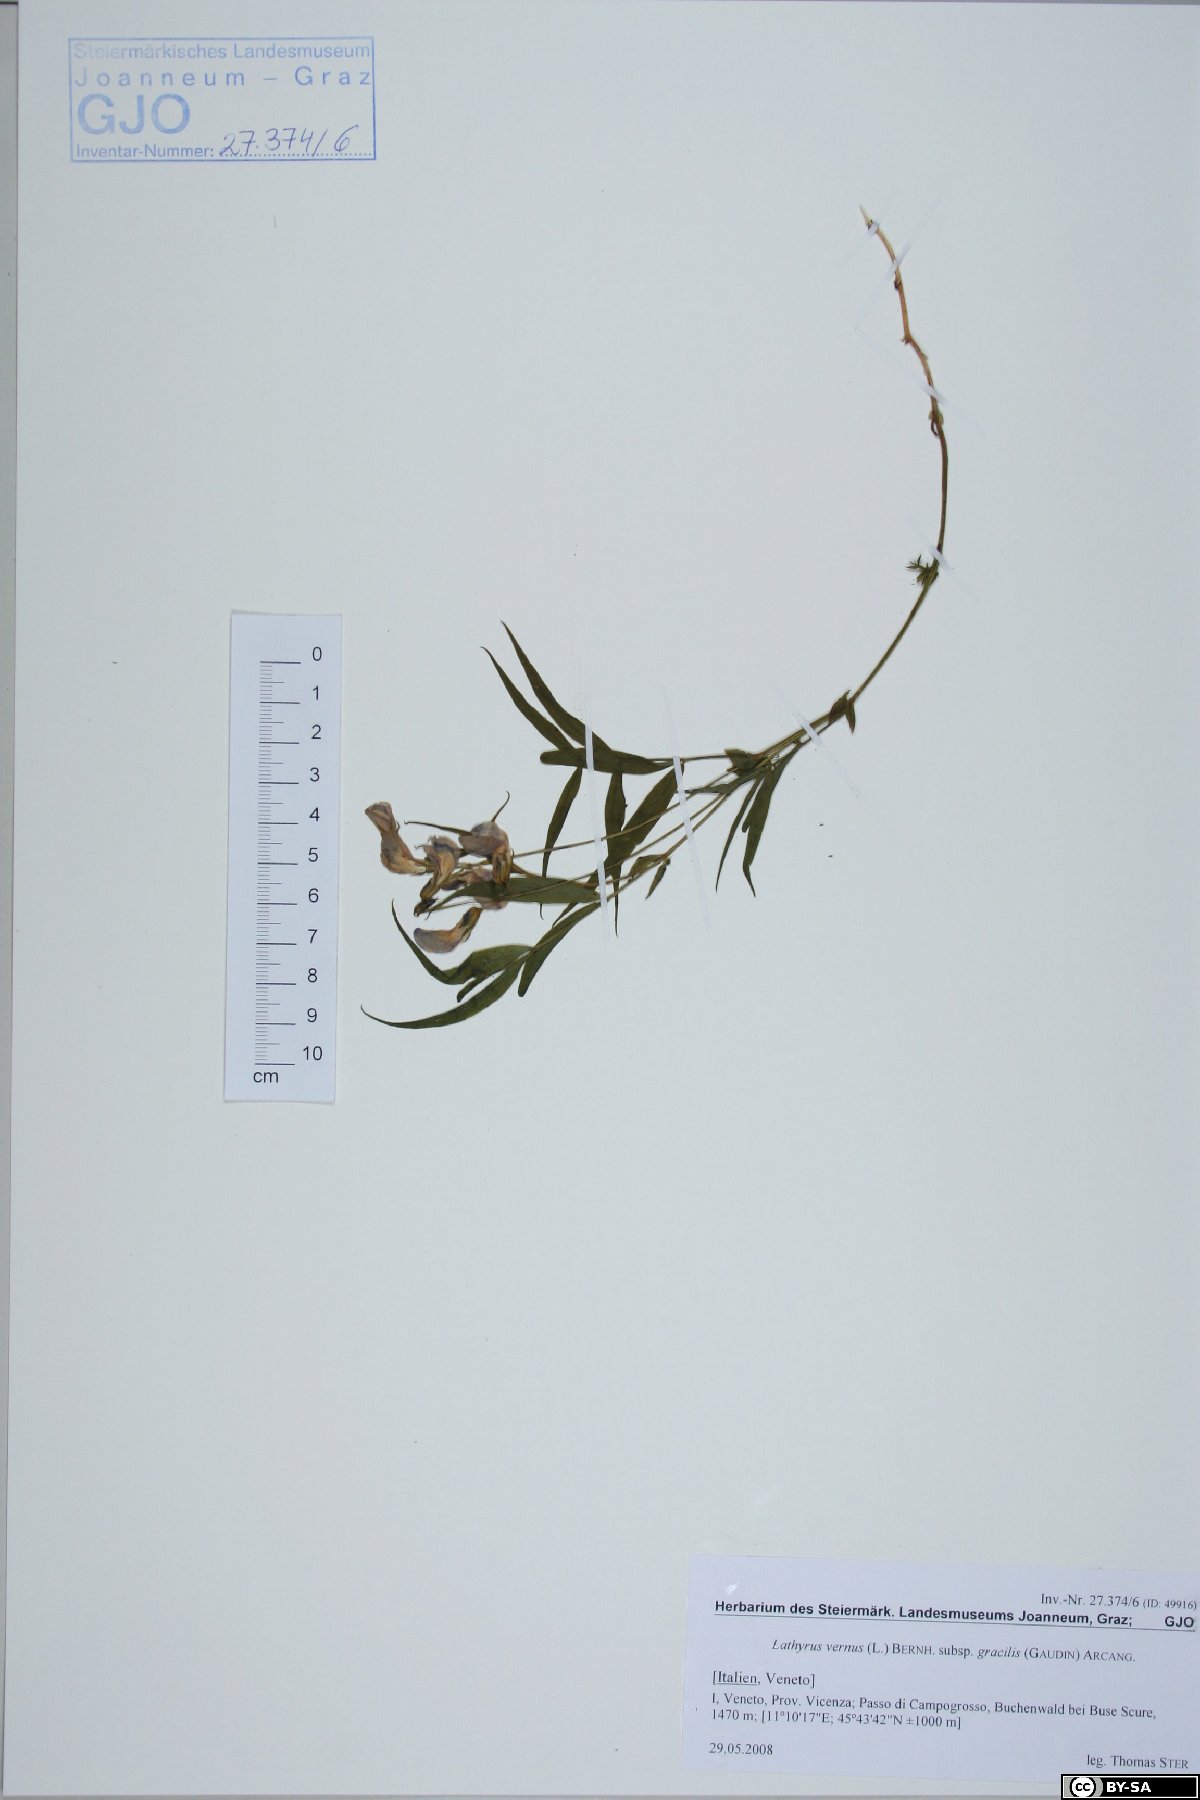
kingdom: Plantae
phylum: Tracheophyta
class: Magnoliopsida
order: Fabales
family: Fabaceae
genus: Lathyrus
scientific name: Lathyrus vernus
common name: Spring pea
